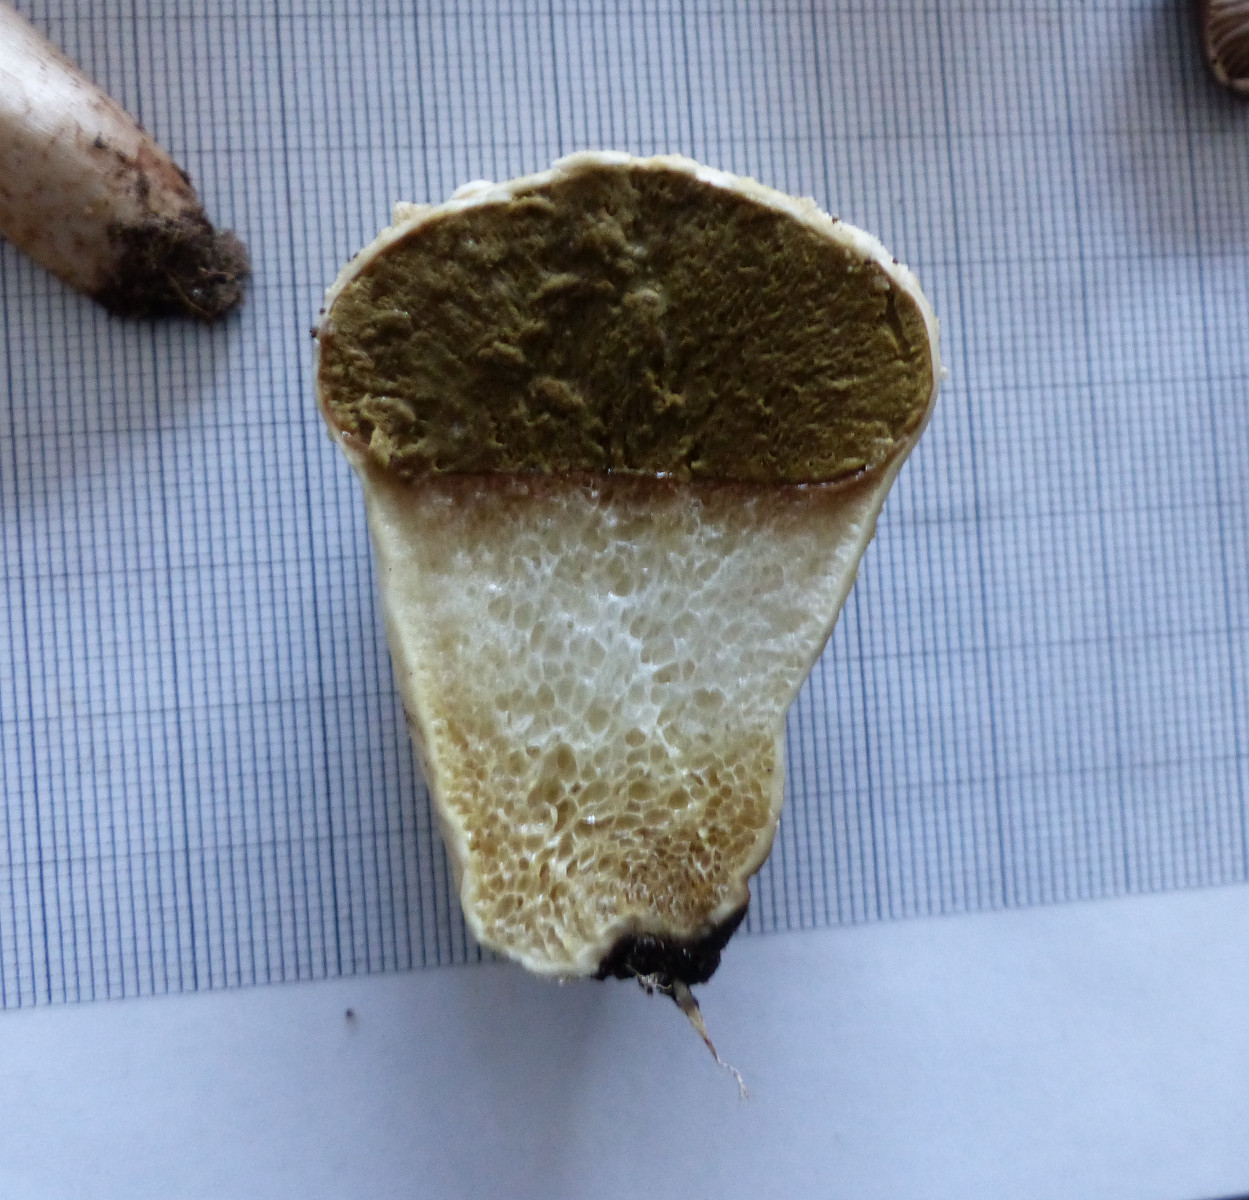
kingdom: Fungi
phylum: Basidiomycota
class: Agaricomycetes
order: Agaricales
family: Lycoperdaceae
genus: Lycoperdon
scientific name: Lycoperdon pratense
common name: flad støvbold
